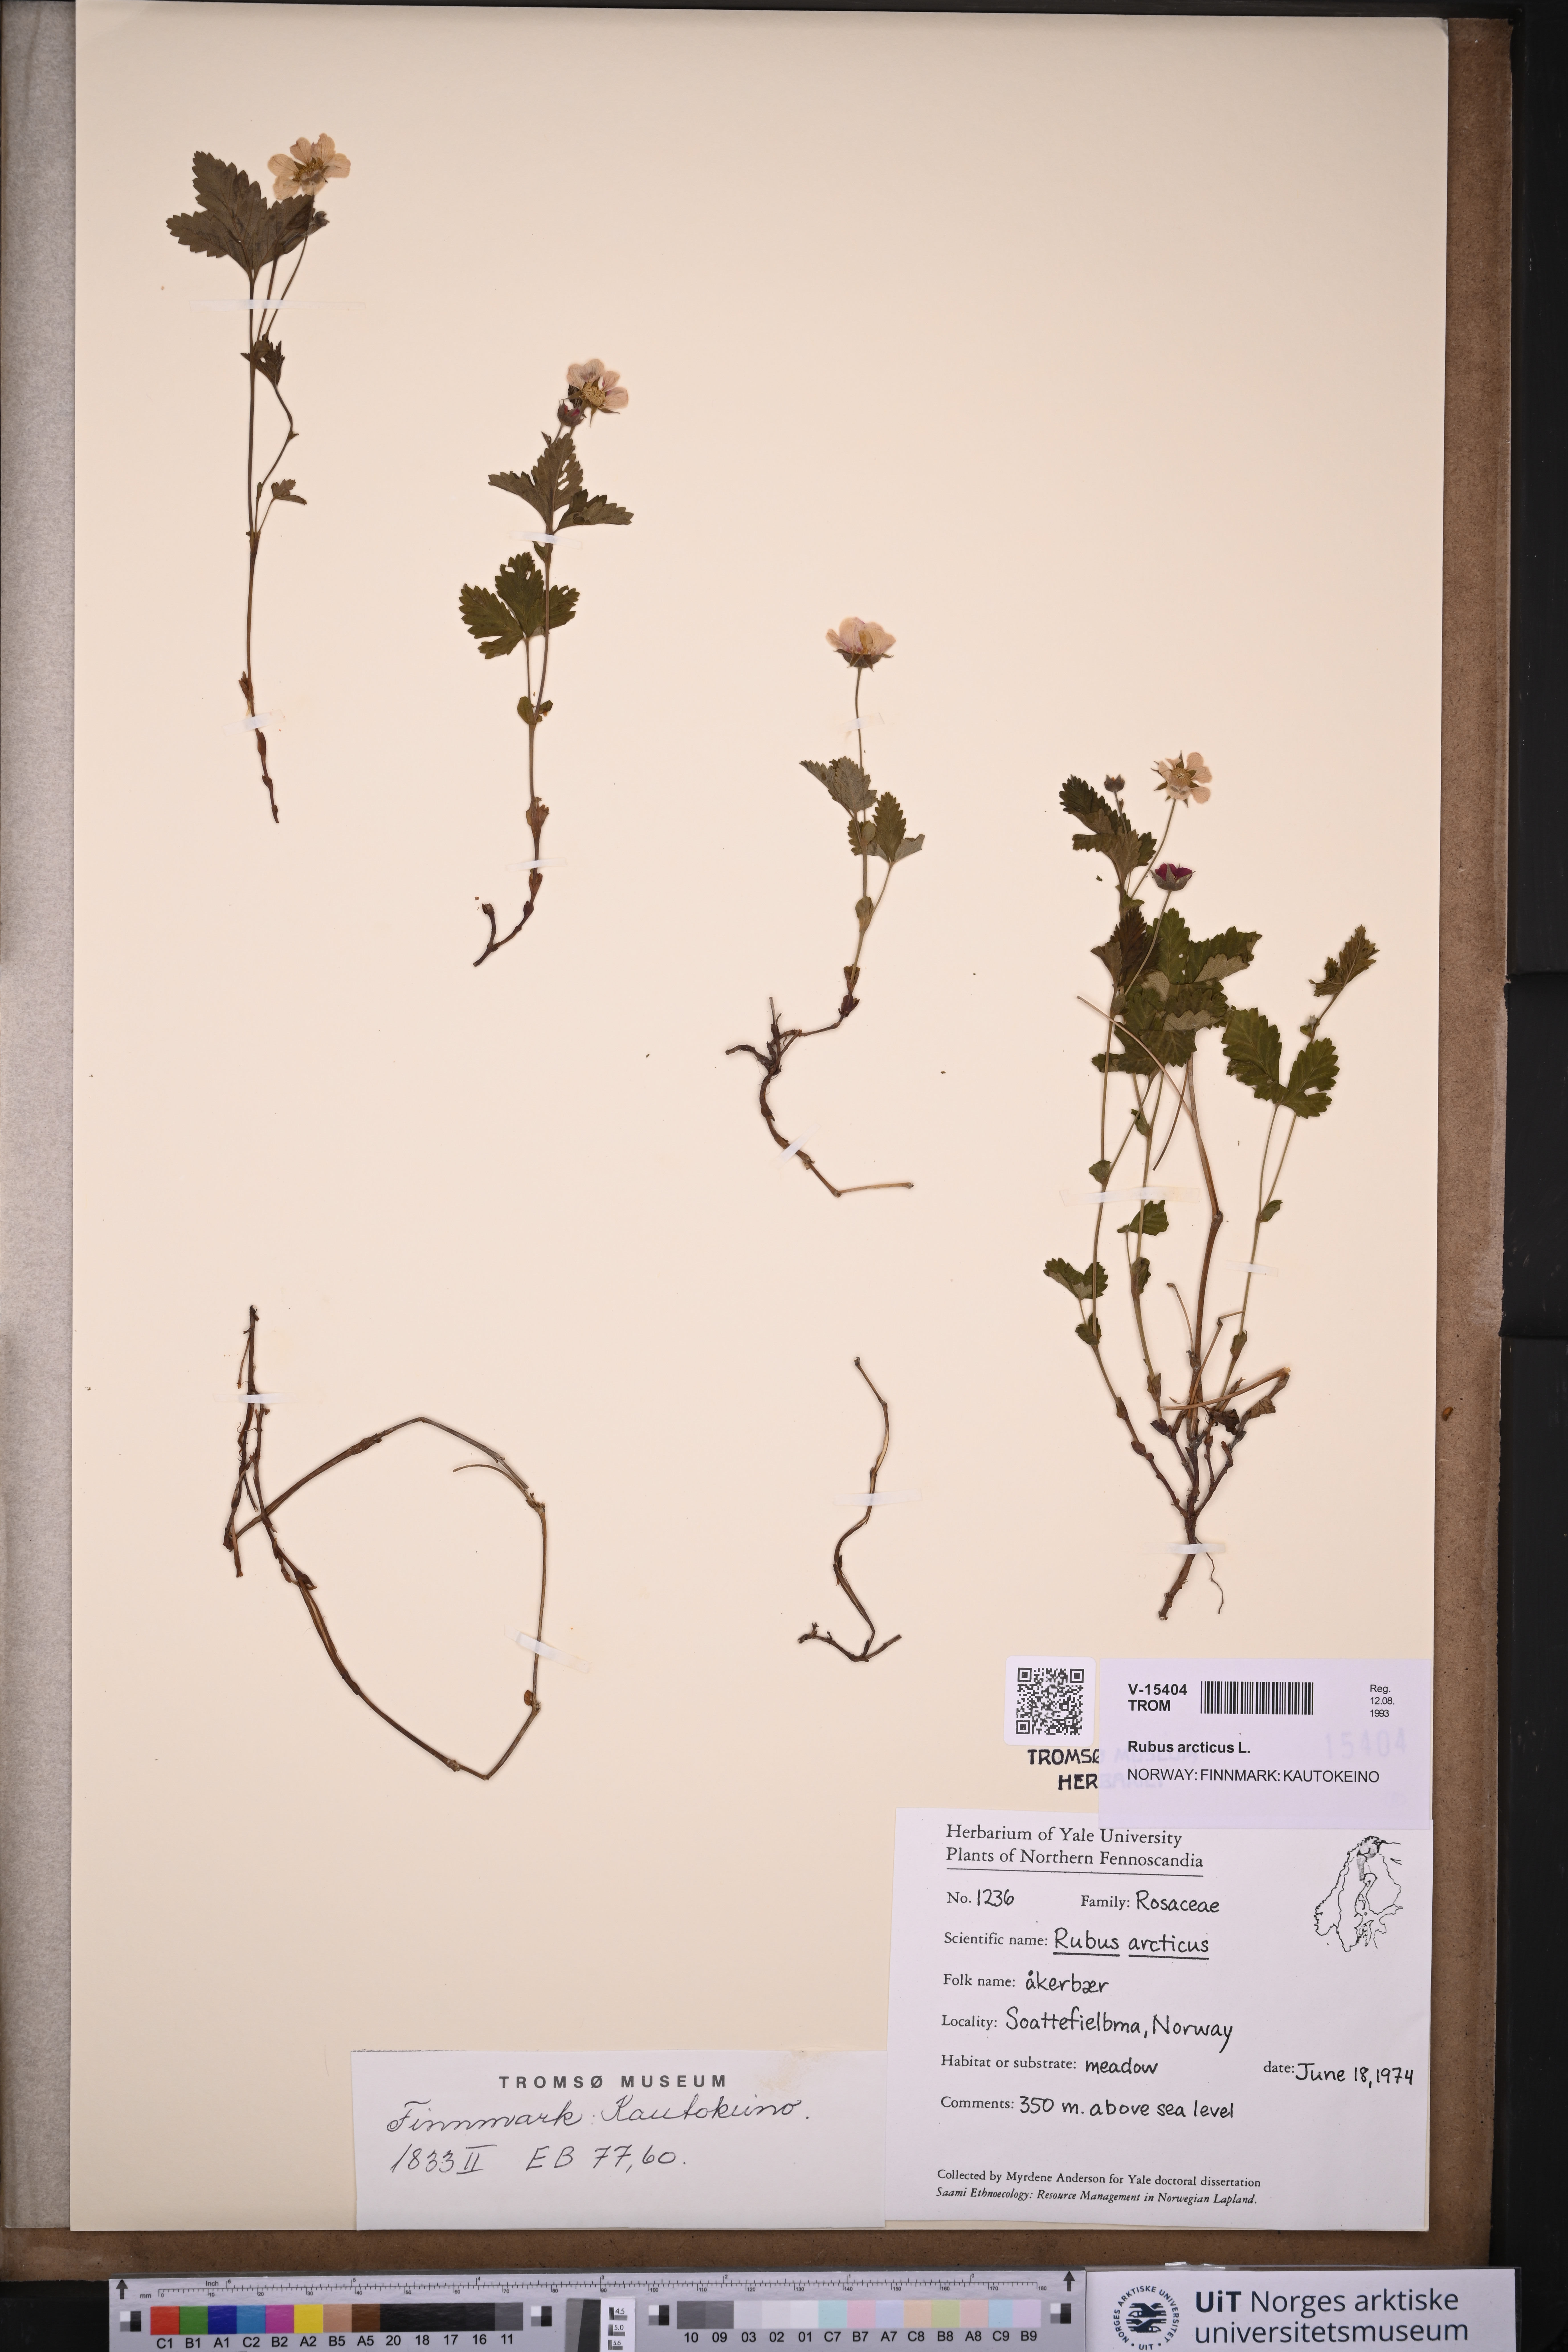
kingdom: Plantae
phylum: Tracheophyta
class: Magnoliopsida
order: Rosales
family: Rosaceae
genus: Rubus
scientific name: Rubus arcticus
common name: Arctic bramble
